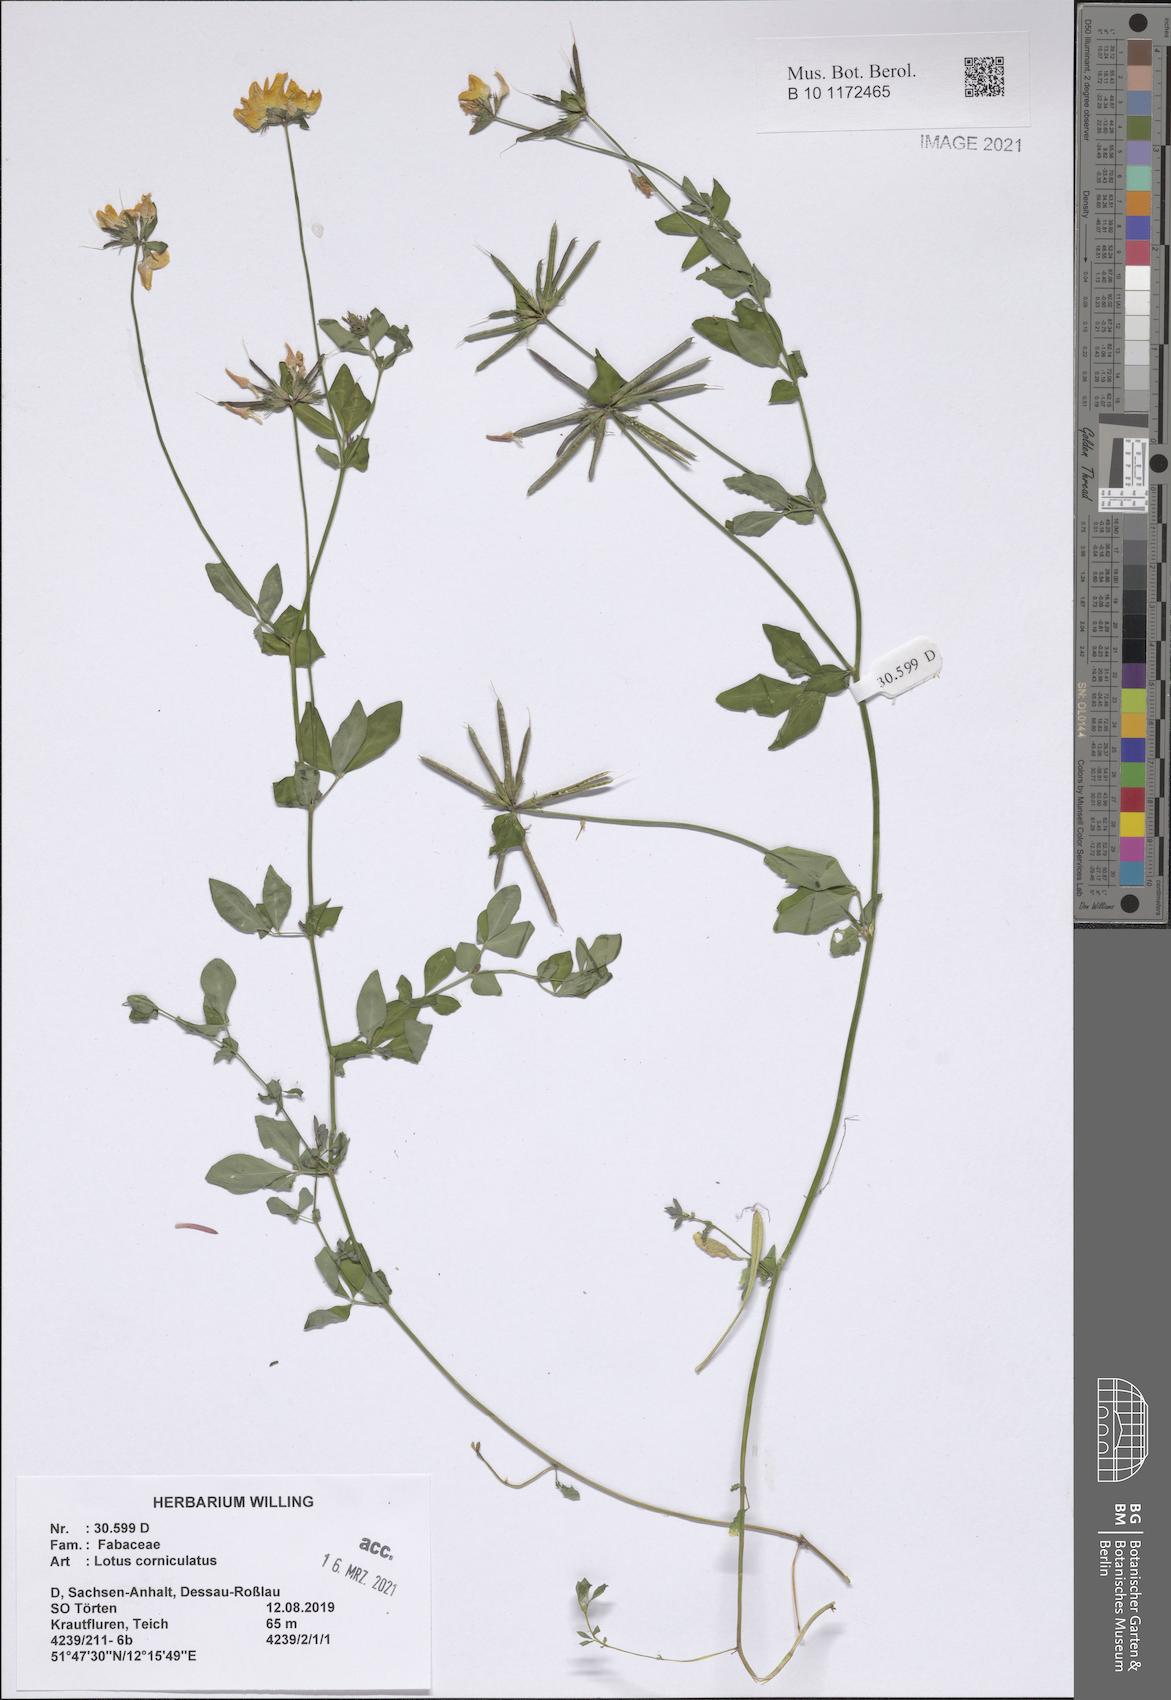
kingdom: Plantae
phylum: Tracheophyta
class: Magnoliopsida
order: Fabales
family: Fabaceae
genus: Lotus
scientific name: Lotus corniculatus
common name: Common bird's-foot-trefoil
